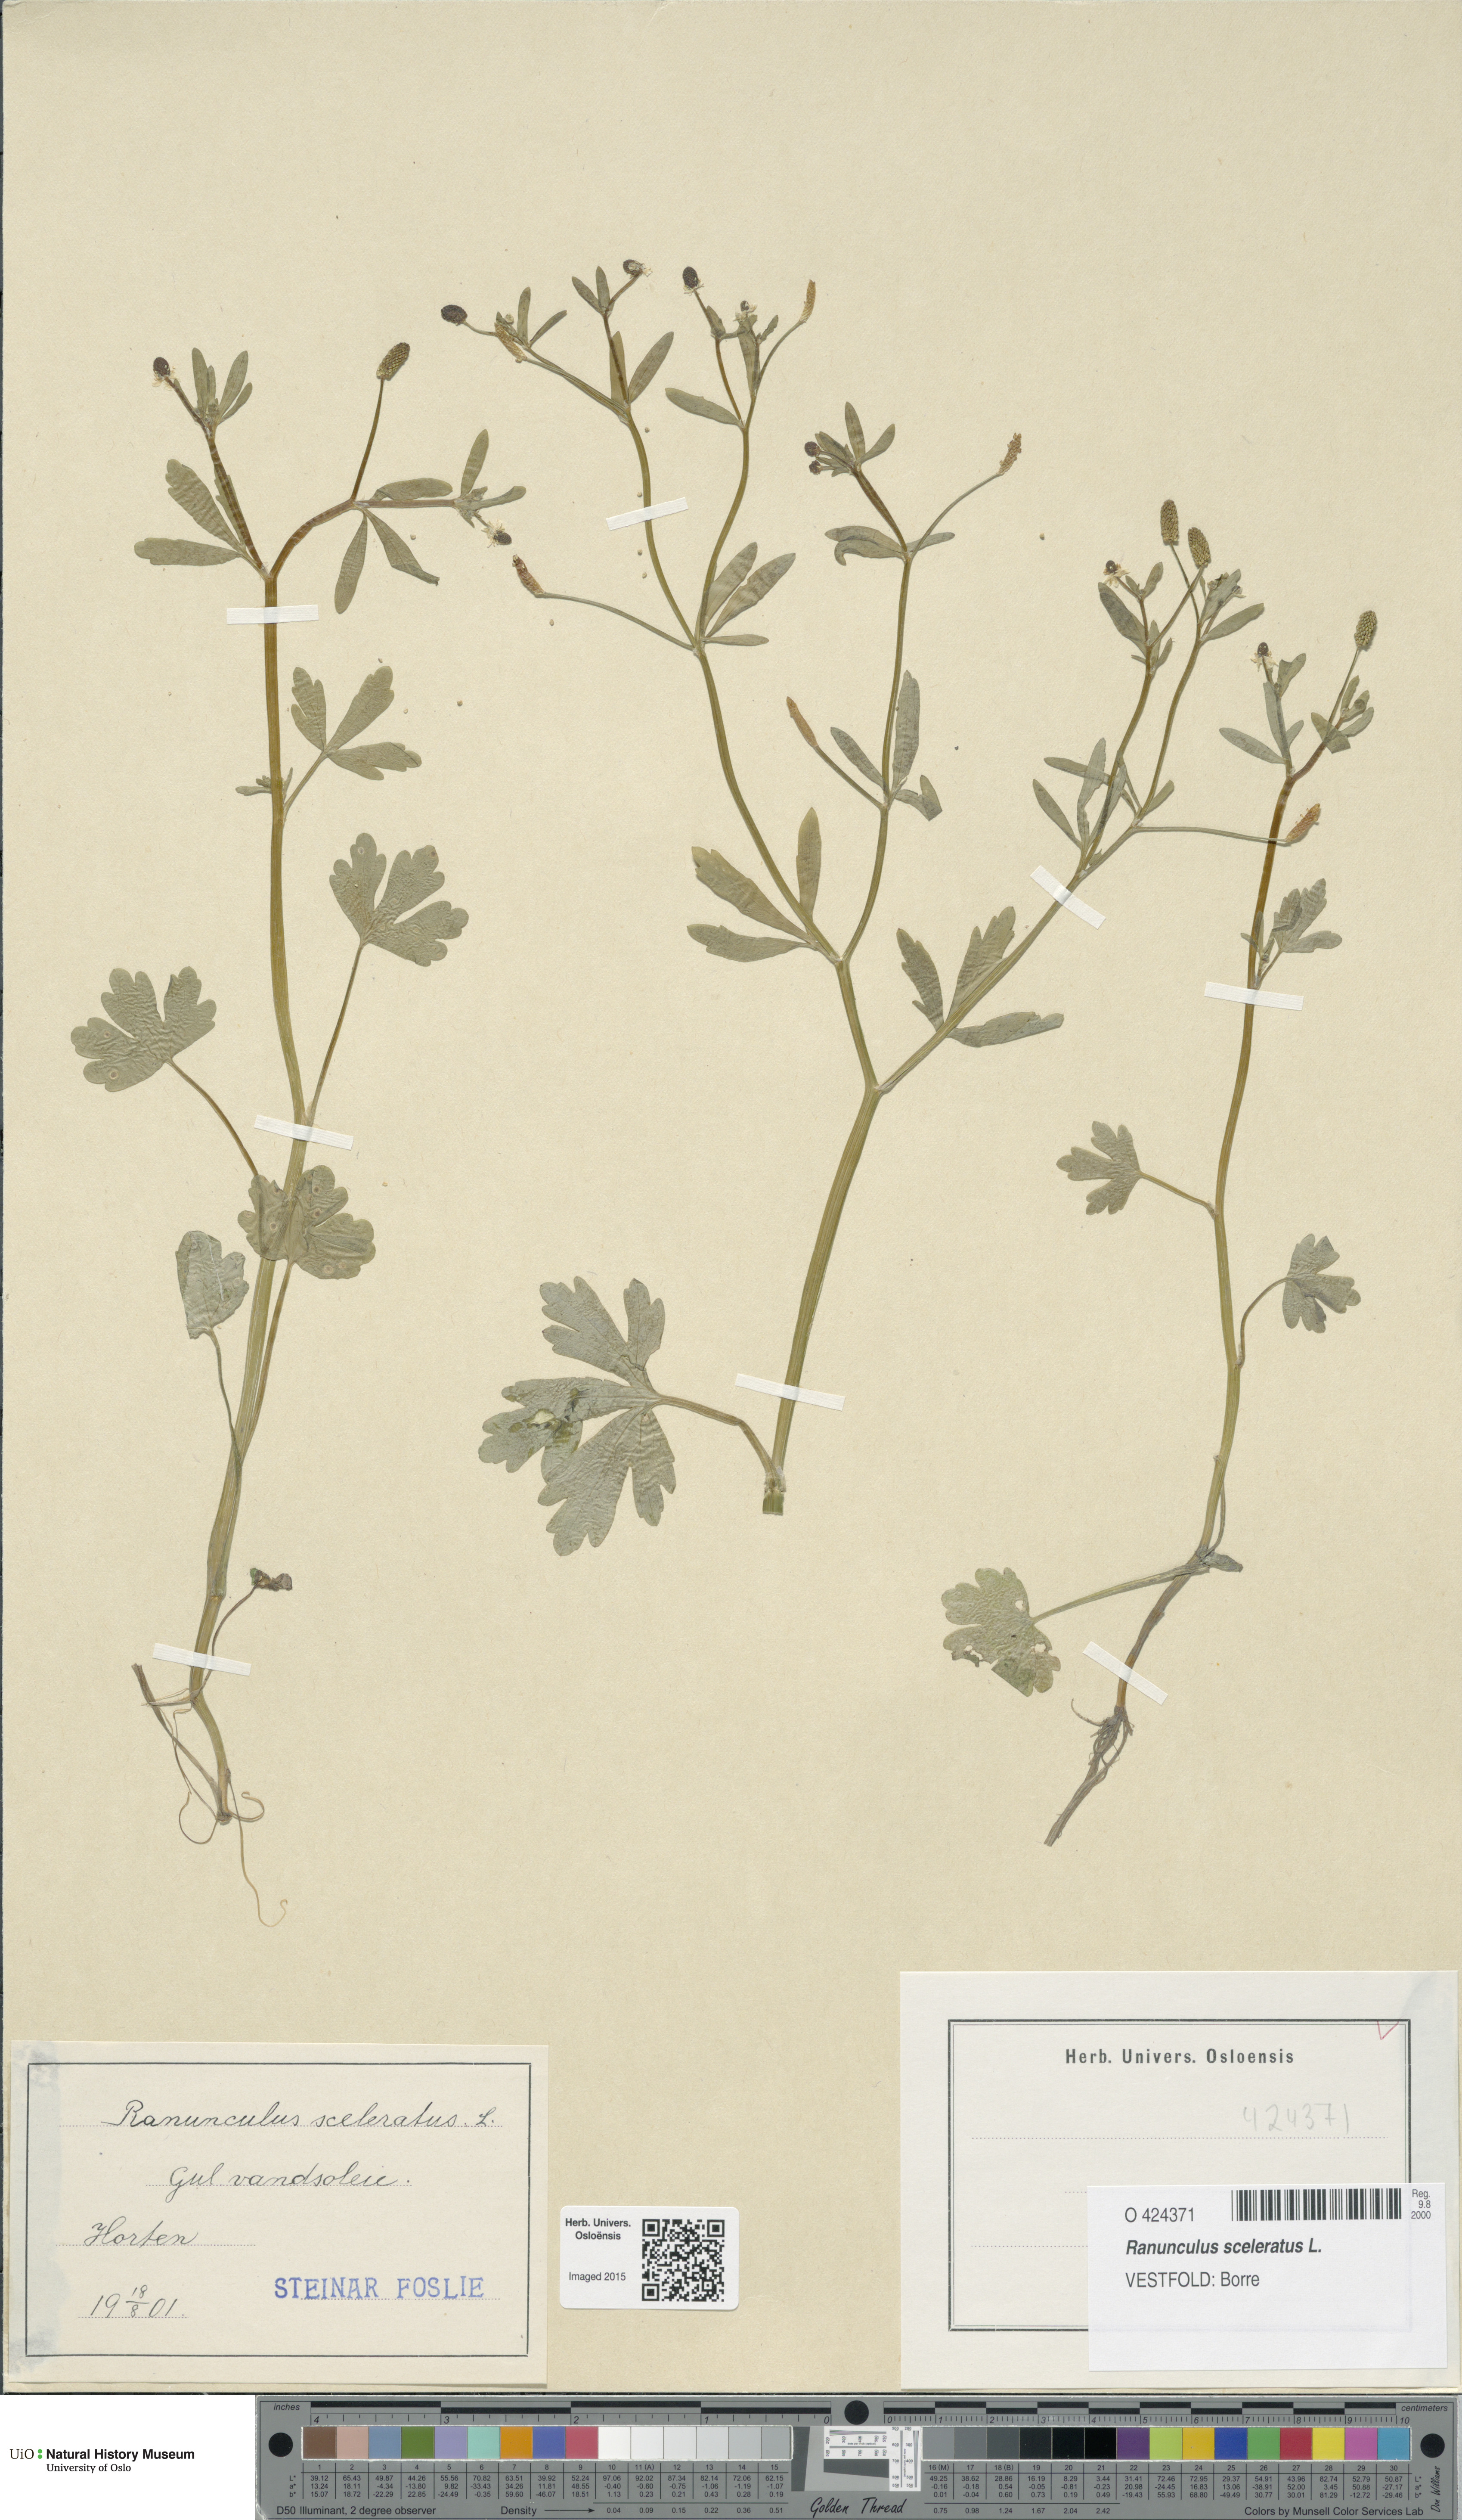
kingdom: Plantae
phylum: Tracheophyta
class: Magnoliopsida
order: Ranunculales
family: Ranunculaceae
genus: Ranunculus
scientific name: Ranunculus sceleratus
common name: Celery-leaved buttercup
